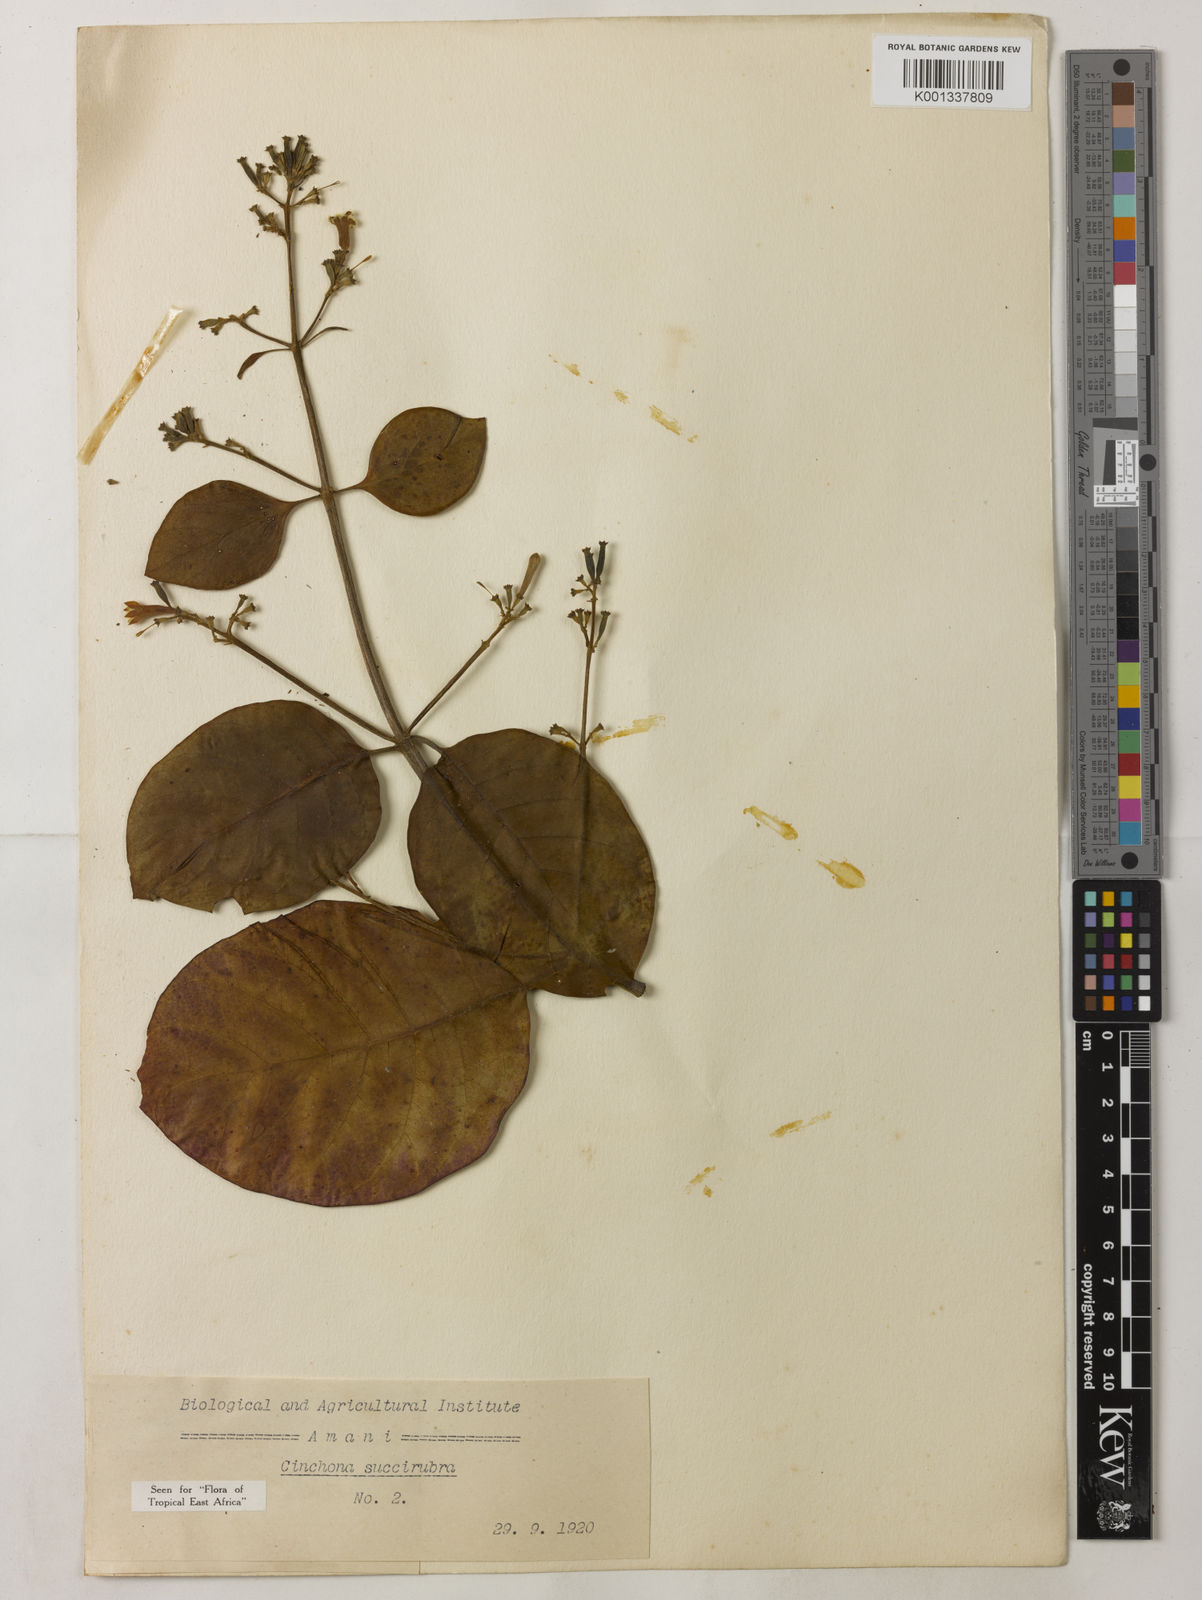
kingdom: Plantae
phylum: Tracheophyta
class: Magnoliopsida
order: Gentianales
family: Rubiaceae
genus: Cinchona
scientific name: Cinchona pubescens
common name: Quinine
